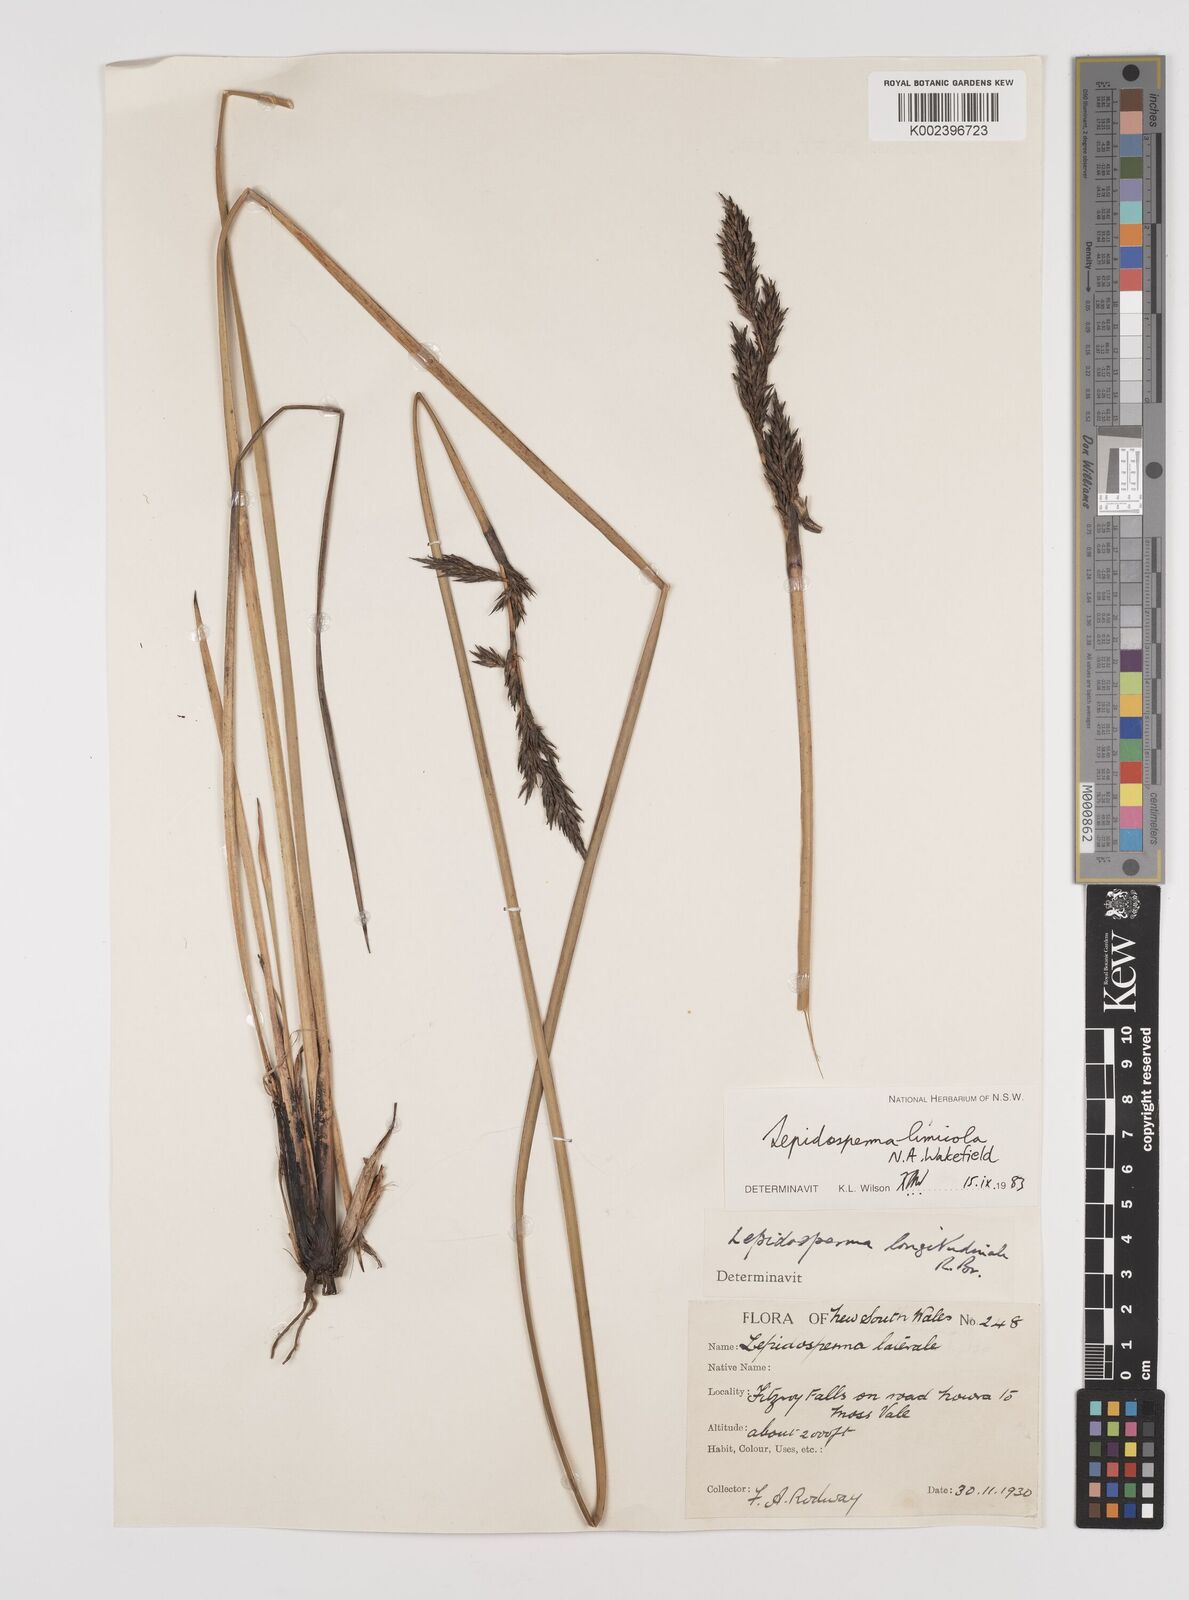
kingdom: Plantae
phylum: Tracheophyta
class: Liliopsida
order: Poales
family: Cyperaceae
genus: Lepidosperma
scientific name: Lepidosperma limicola
